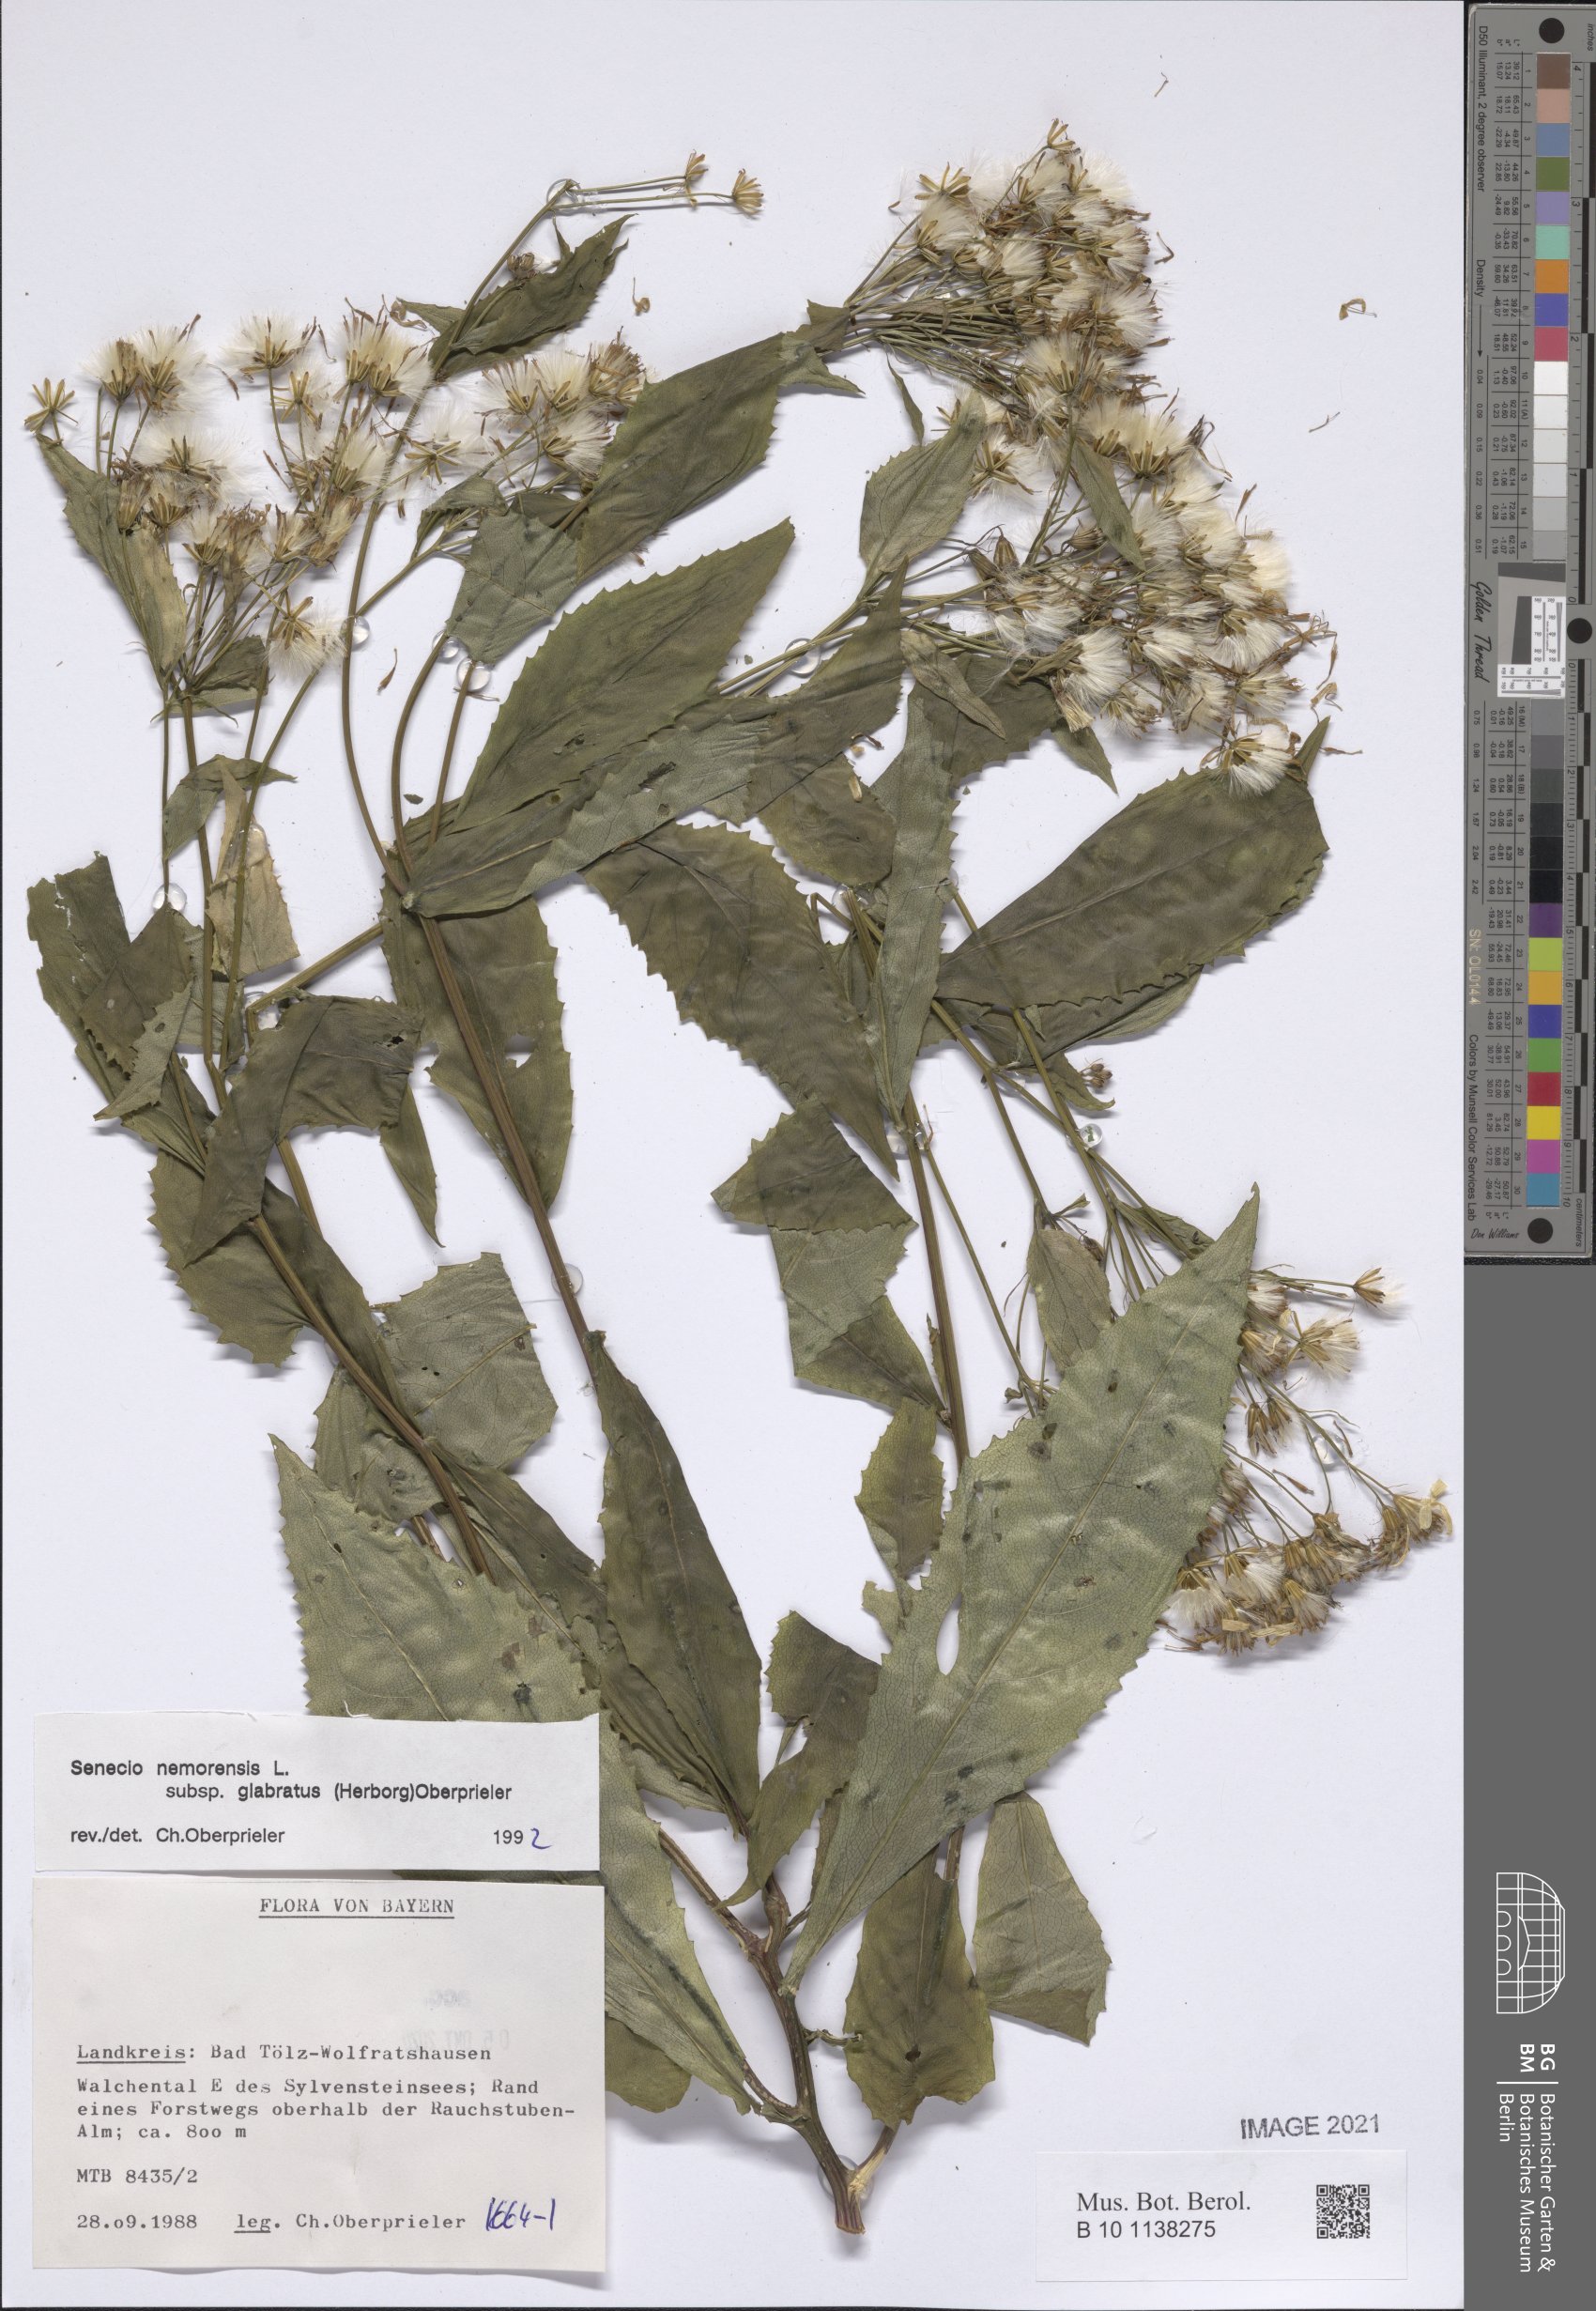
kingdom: Plantae
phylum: Tracheophyta
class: Magnoliopsida
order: Asterales
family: Asteraceae
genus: Senecio
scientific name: Senecio germanicus
